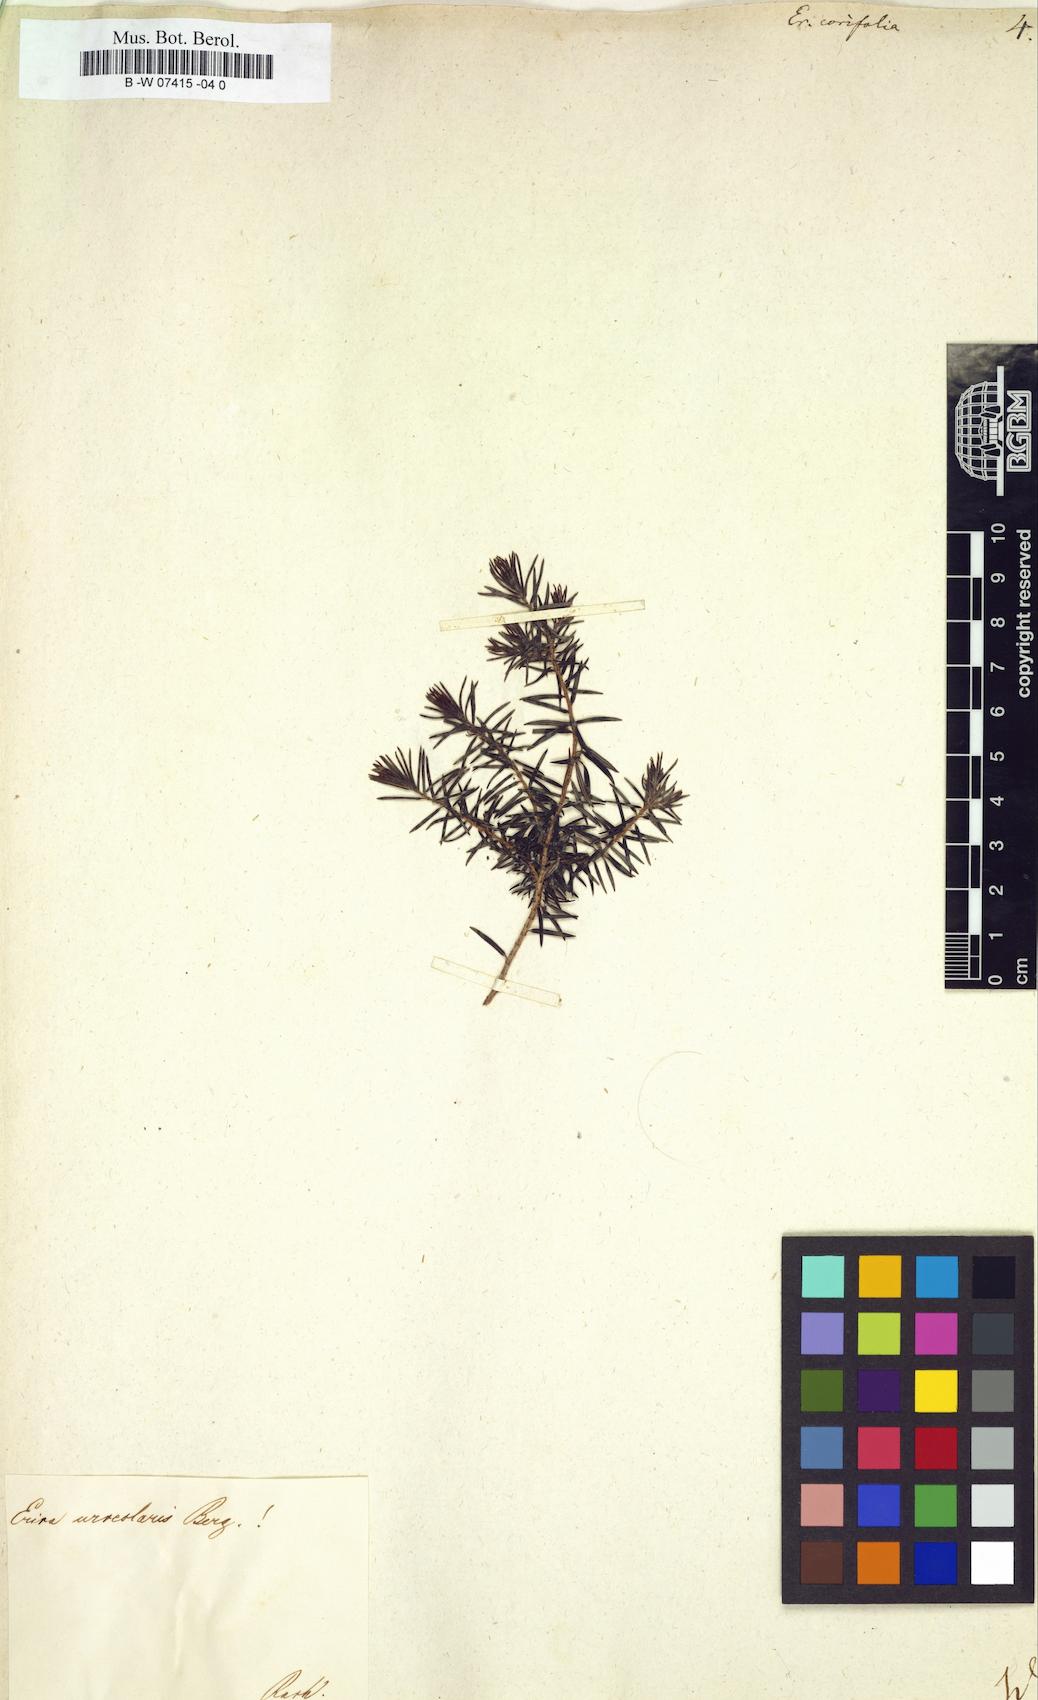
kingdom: Plantae
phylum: Tracheophyta
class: Magnoliopsida
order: Ericales
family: Ericaceae
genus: Erica
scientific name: Erica corifolia
